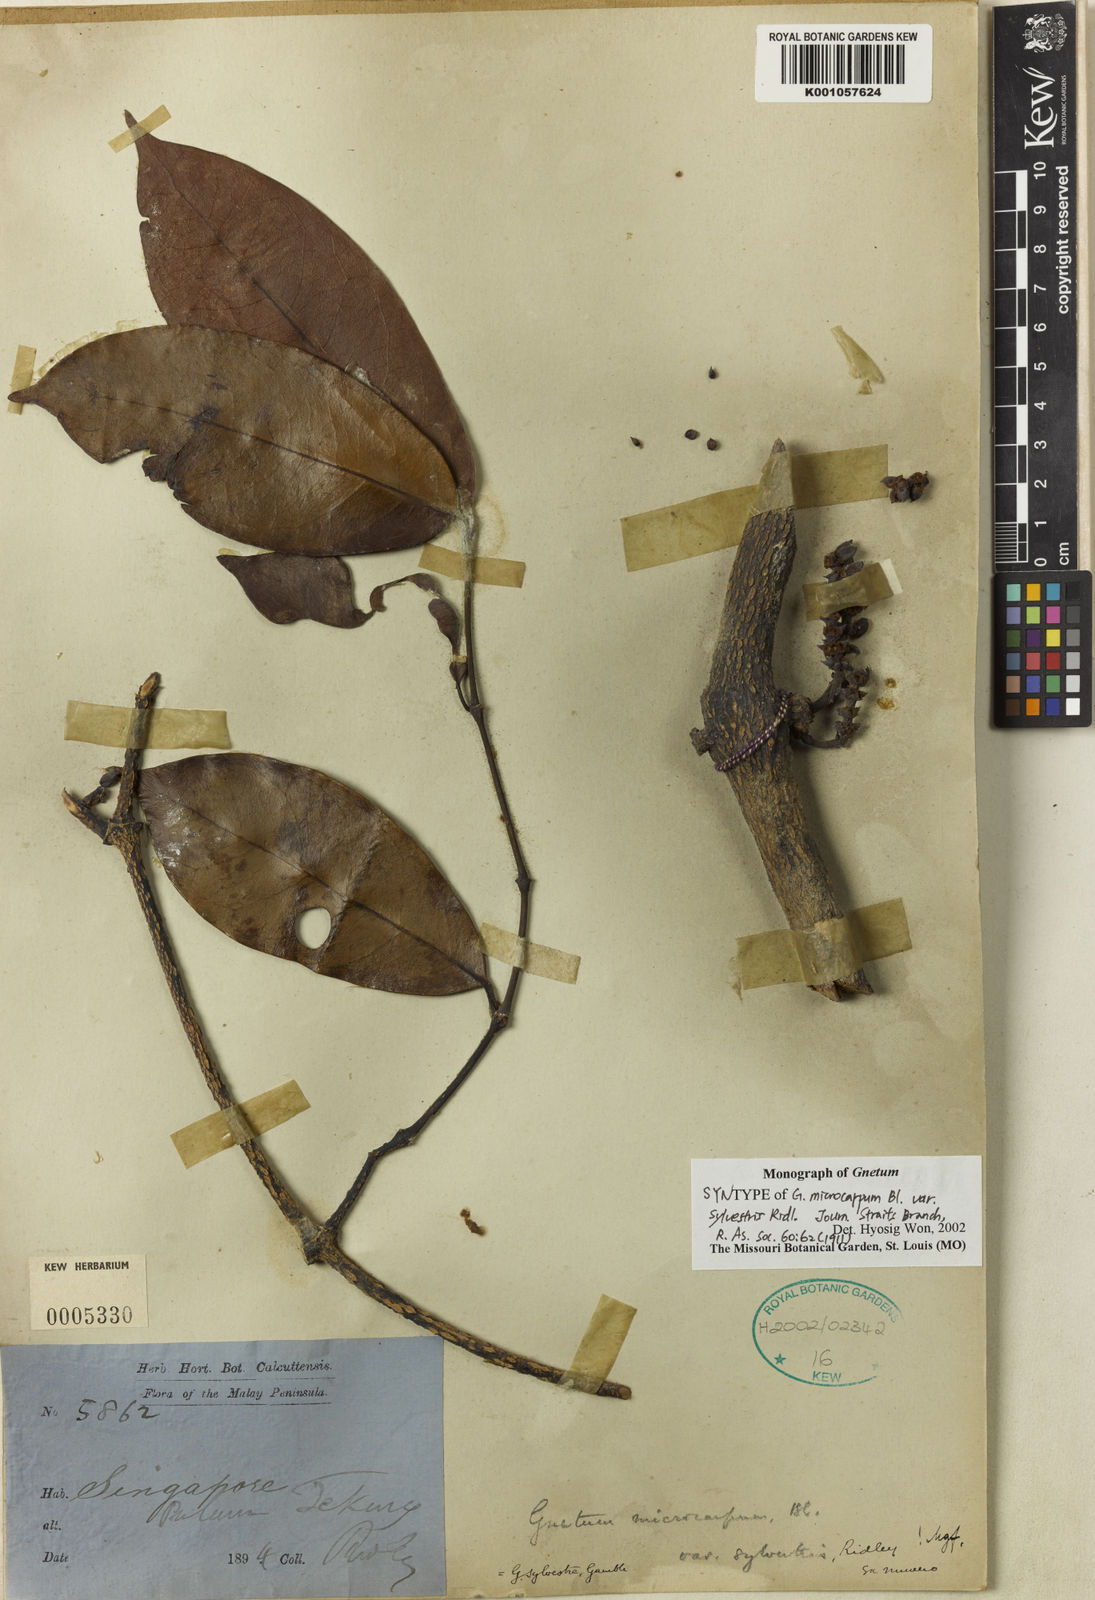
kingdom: Plantae
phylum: Tracheophyta
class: Gnetopsida
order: Gnetales
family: Gnetaceae
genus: Gnetum
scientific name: Gnetum microcarpum
